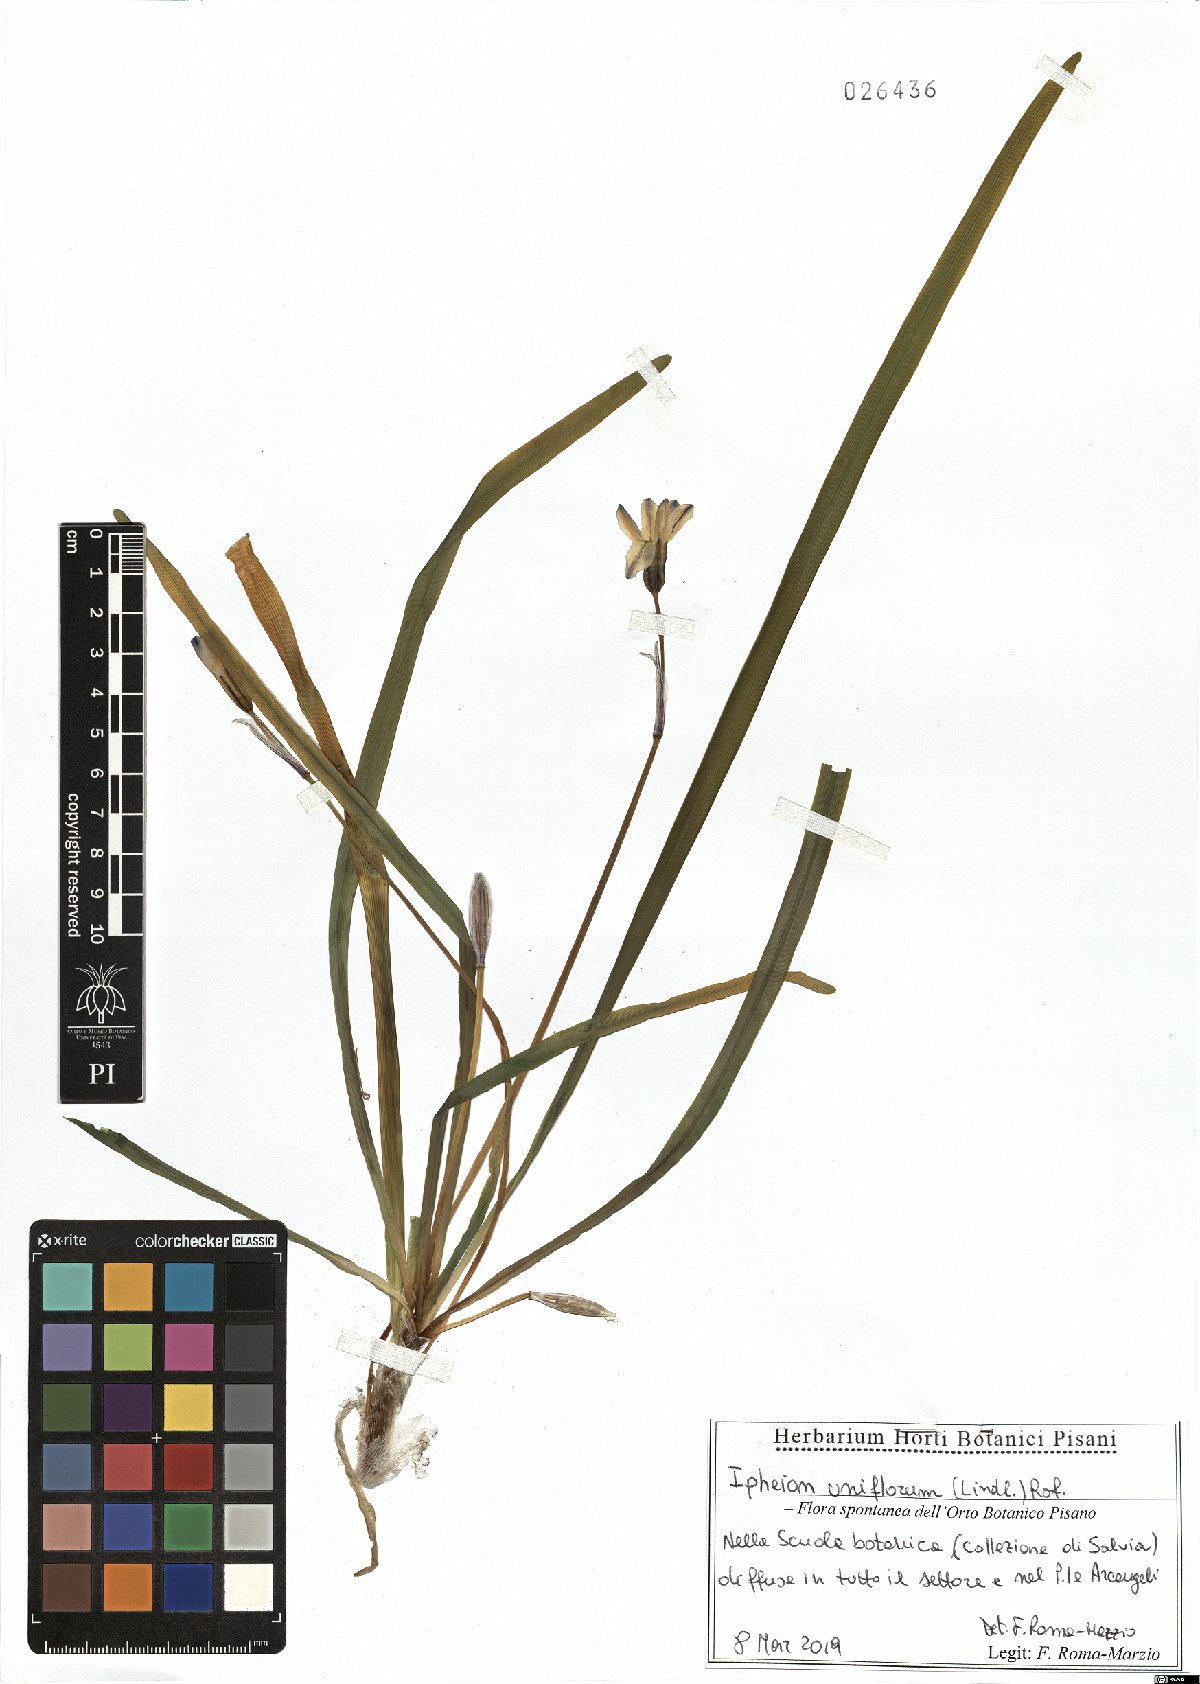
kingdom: Plantae
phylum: Tracheophyta
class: Liliopsida
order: Asparagales
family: Amaryllidaceae
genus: Ipheion
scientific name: Ipheion uniflorum
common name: Spring starflower
